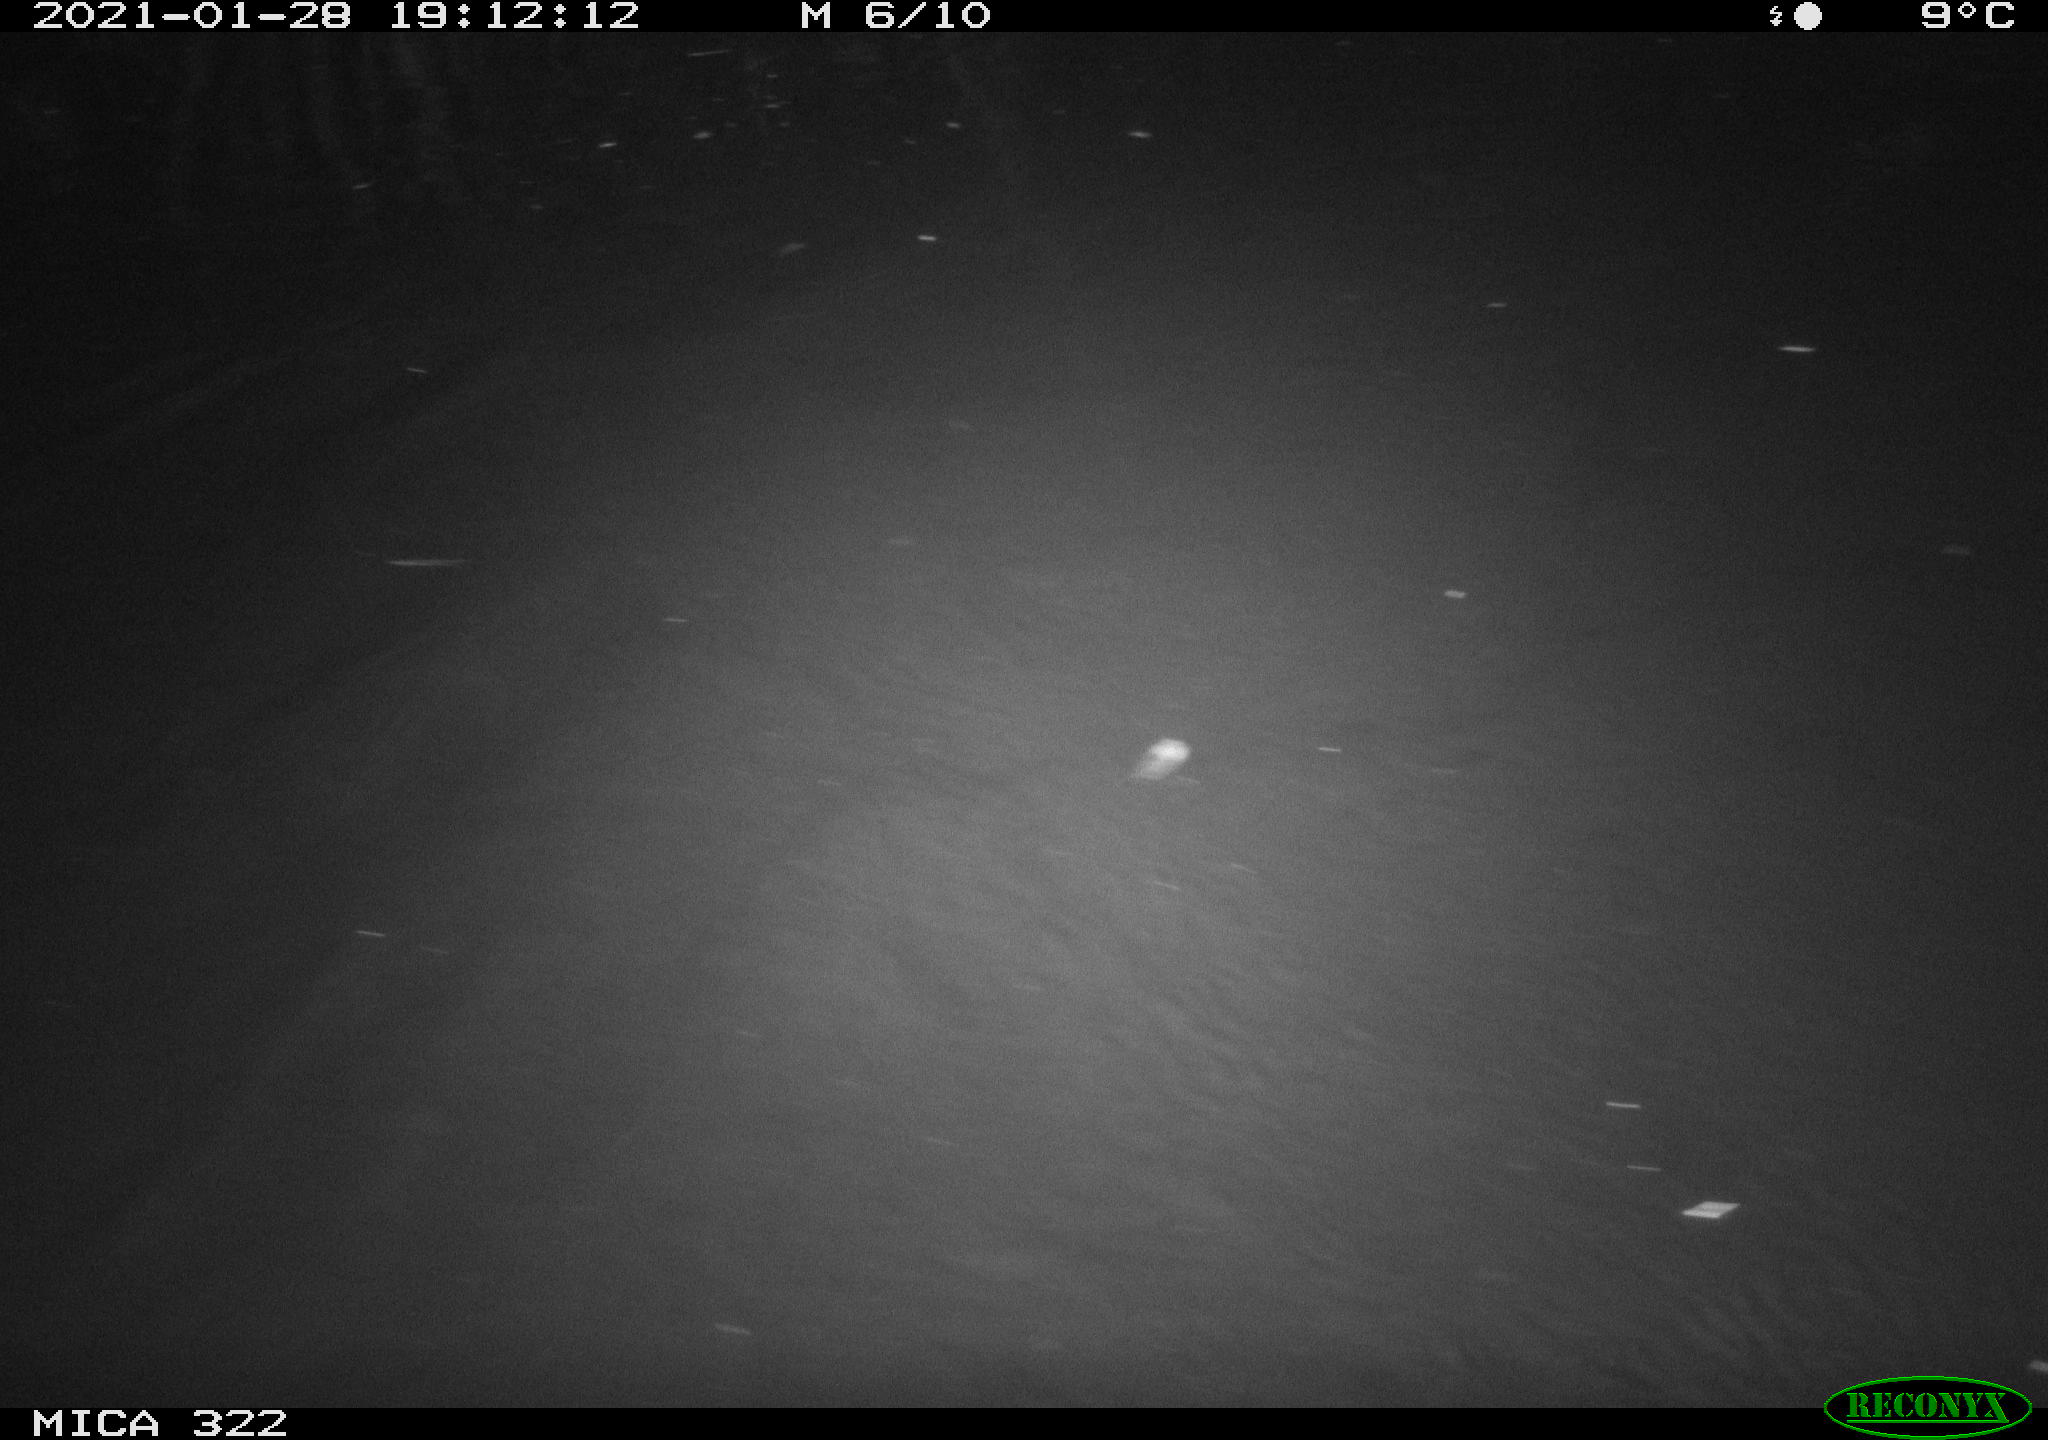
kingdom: Animalia
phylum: Chordata
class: Mammalia
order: Rodentia
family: Muridae
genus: Rattus
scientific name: Rattus norvegicus
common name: Brown rat
